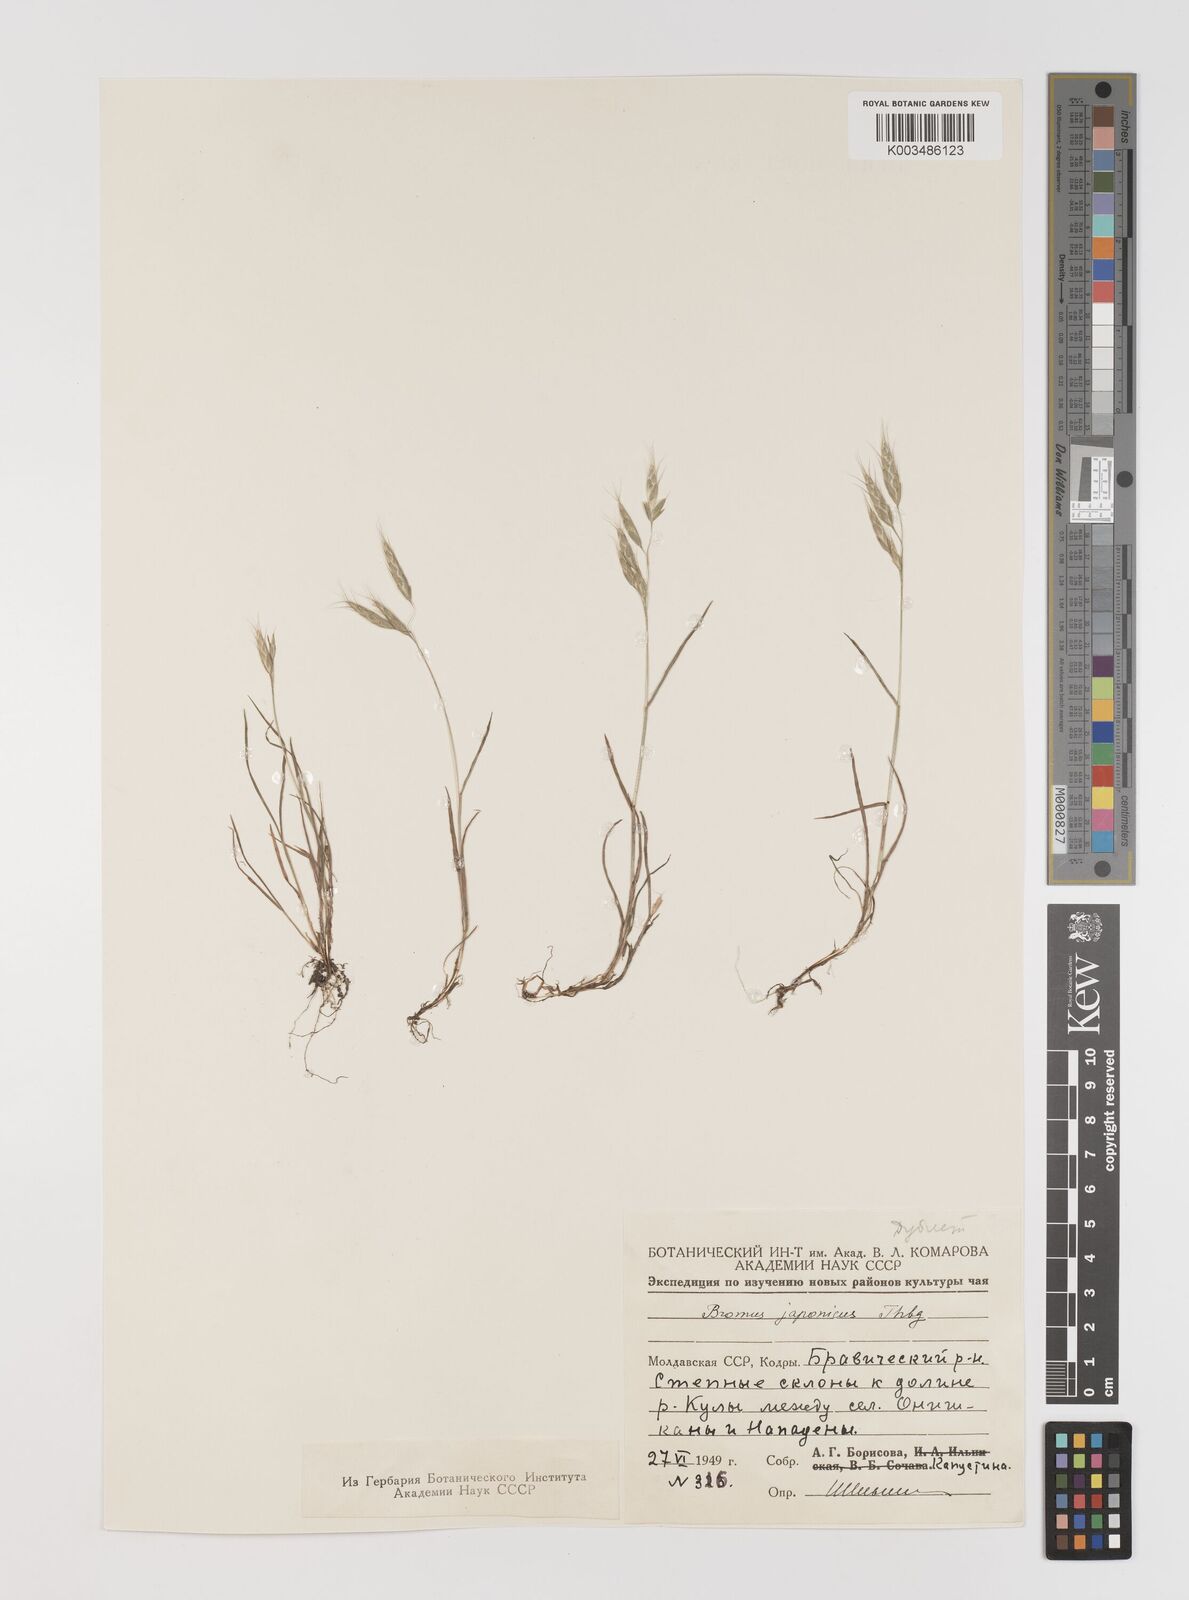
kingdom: Plantae
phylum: Tracheophyta
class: Liliopsida
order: Poales
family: Poaceae
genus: Bromus
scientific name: Bromus japonicus
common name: Japanese brome
